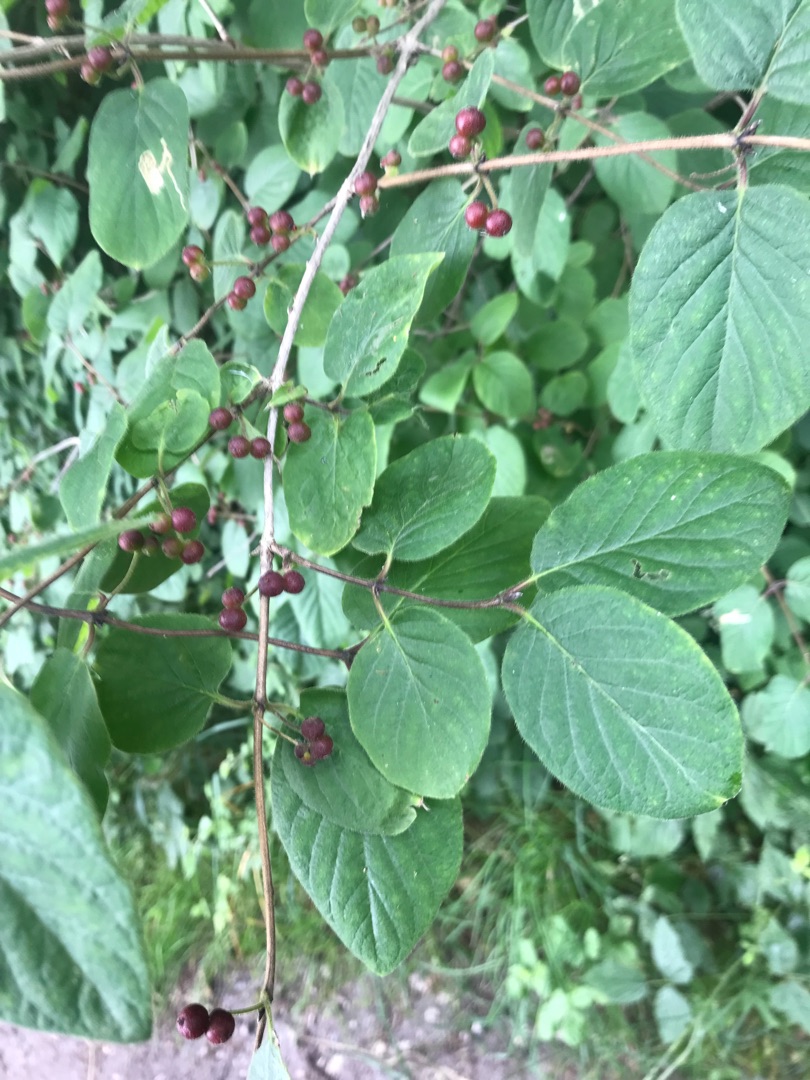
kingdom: Plantae
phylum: Tracheophyta
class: Magnoliopsida
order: Dipsacales
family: Caprifoliaceae
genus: Lonicera
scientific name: Lonicera xylosteum
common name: Dunet gedeblad
